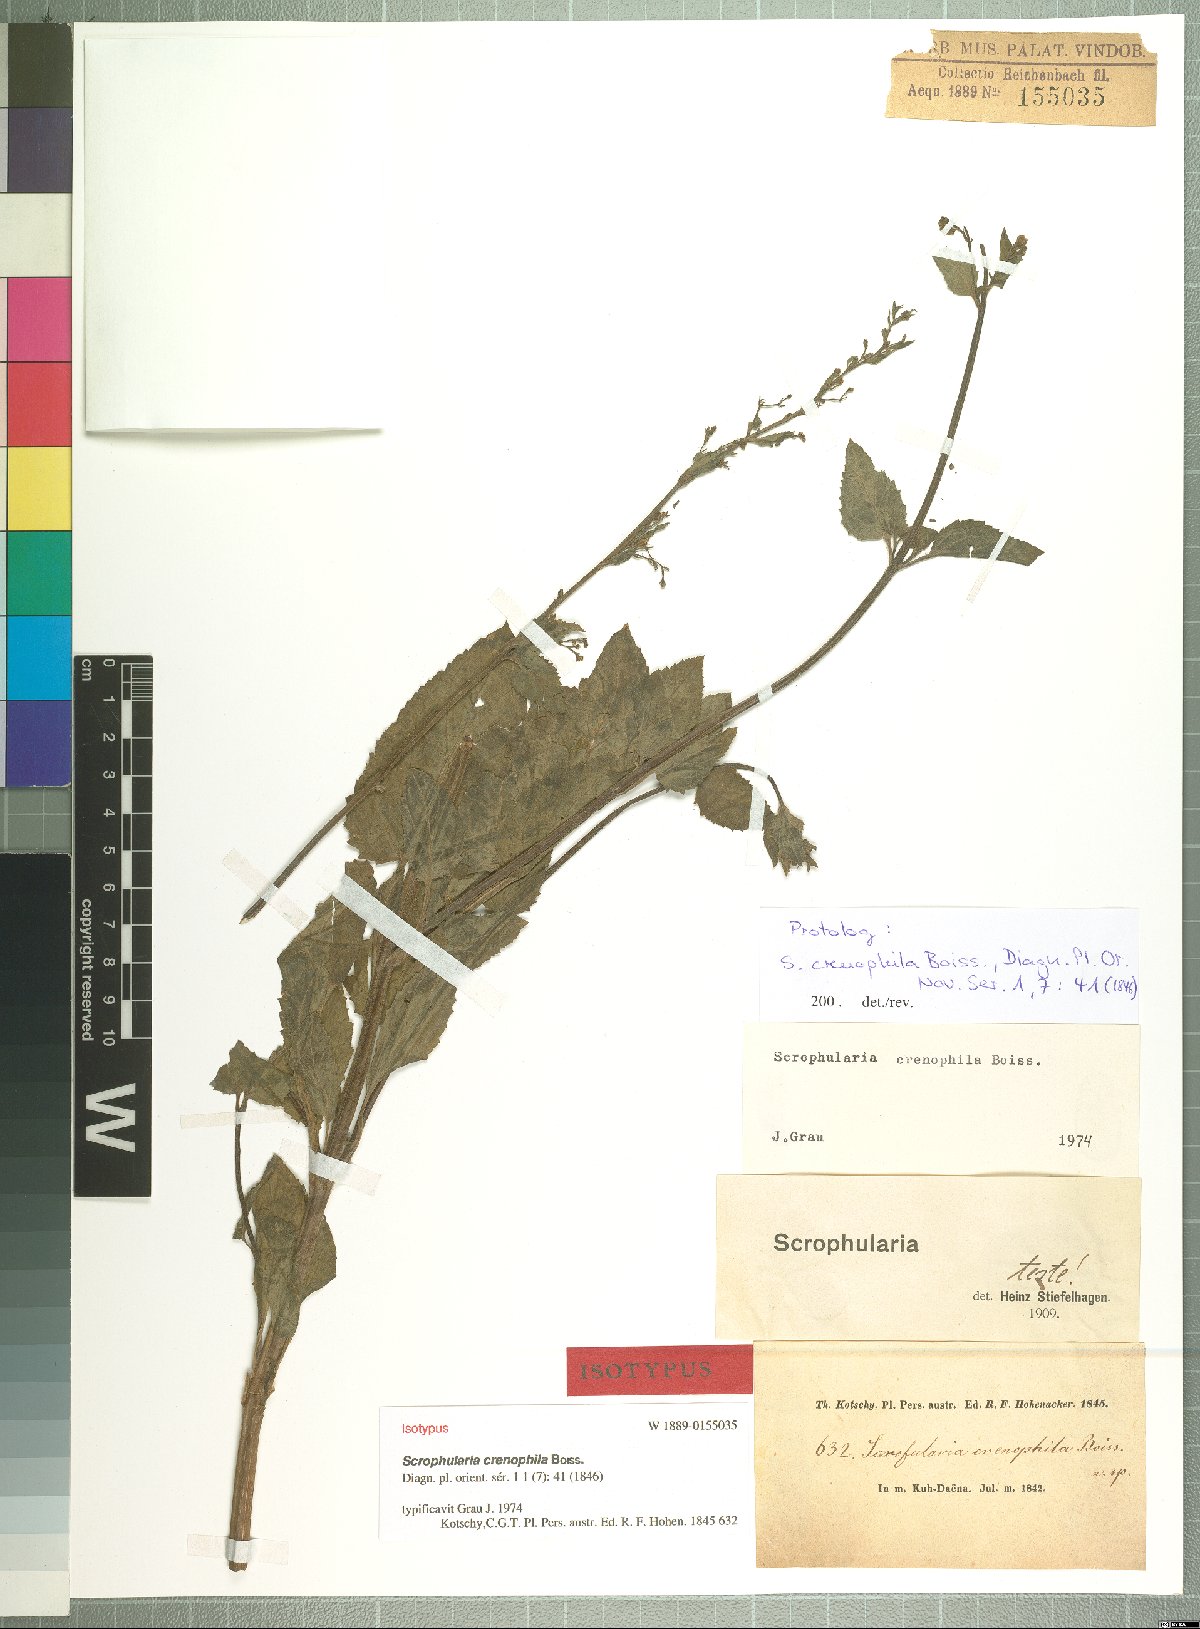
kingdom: Plantae
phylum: Tracheophyta
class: Magnoliopsida
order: Lamiales
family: Scrophulariaceae
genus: Scrophularia
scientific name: Scrophularia crenophila
